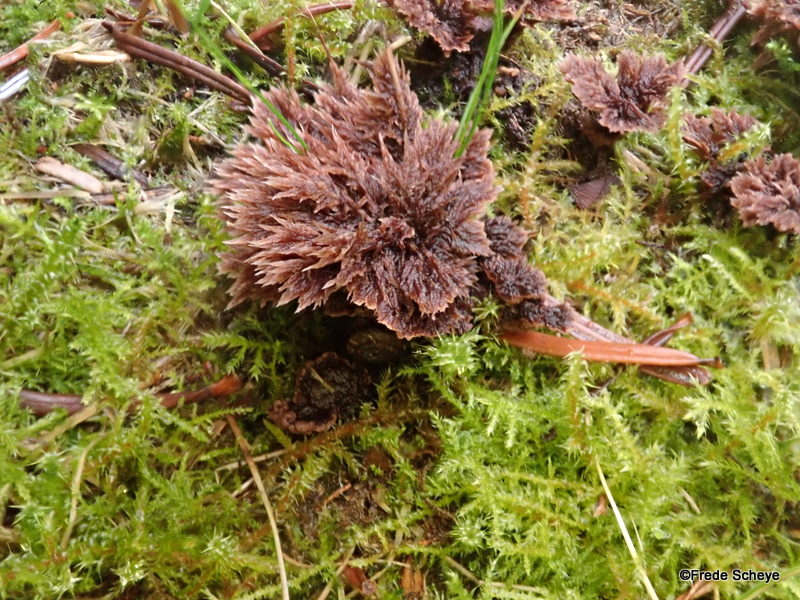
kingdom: Fungi
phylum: Basidiomycota
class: Agaricomycetes
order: Thelephorales
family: Thelephoraceae
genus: Thelephora
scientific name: Thelephora terrestris
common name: fliget frynsesvamp
